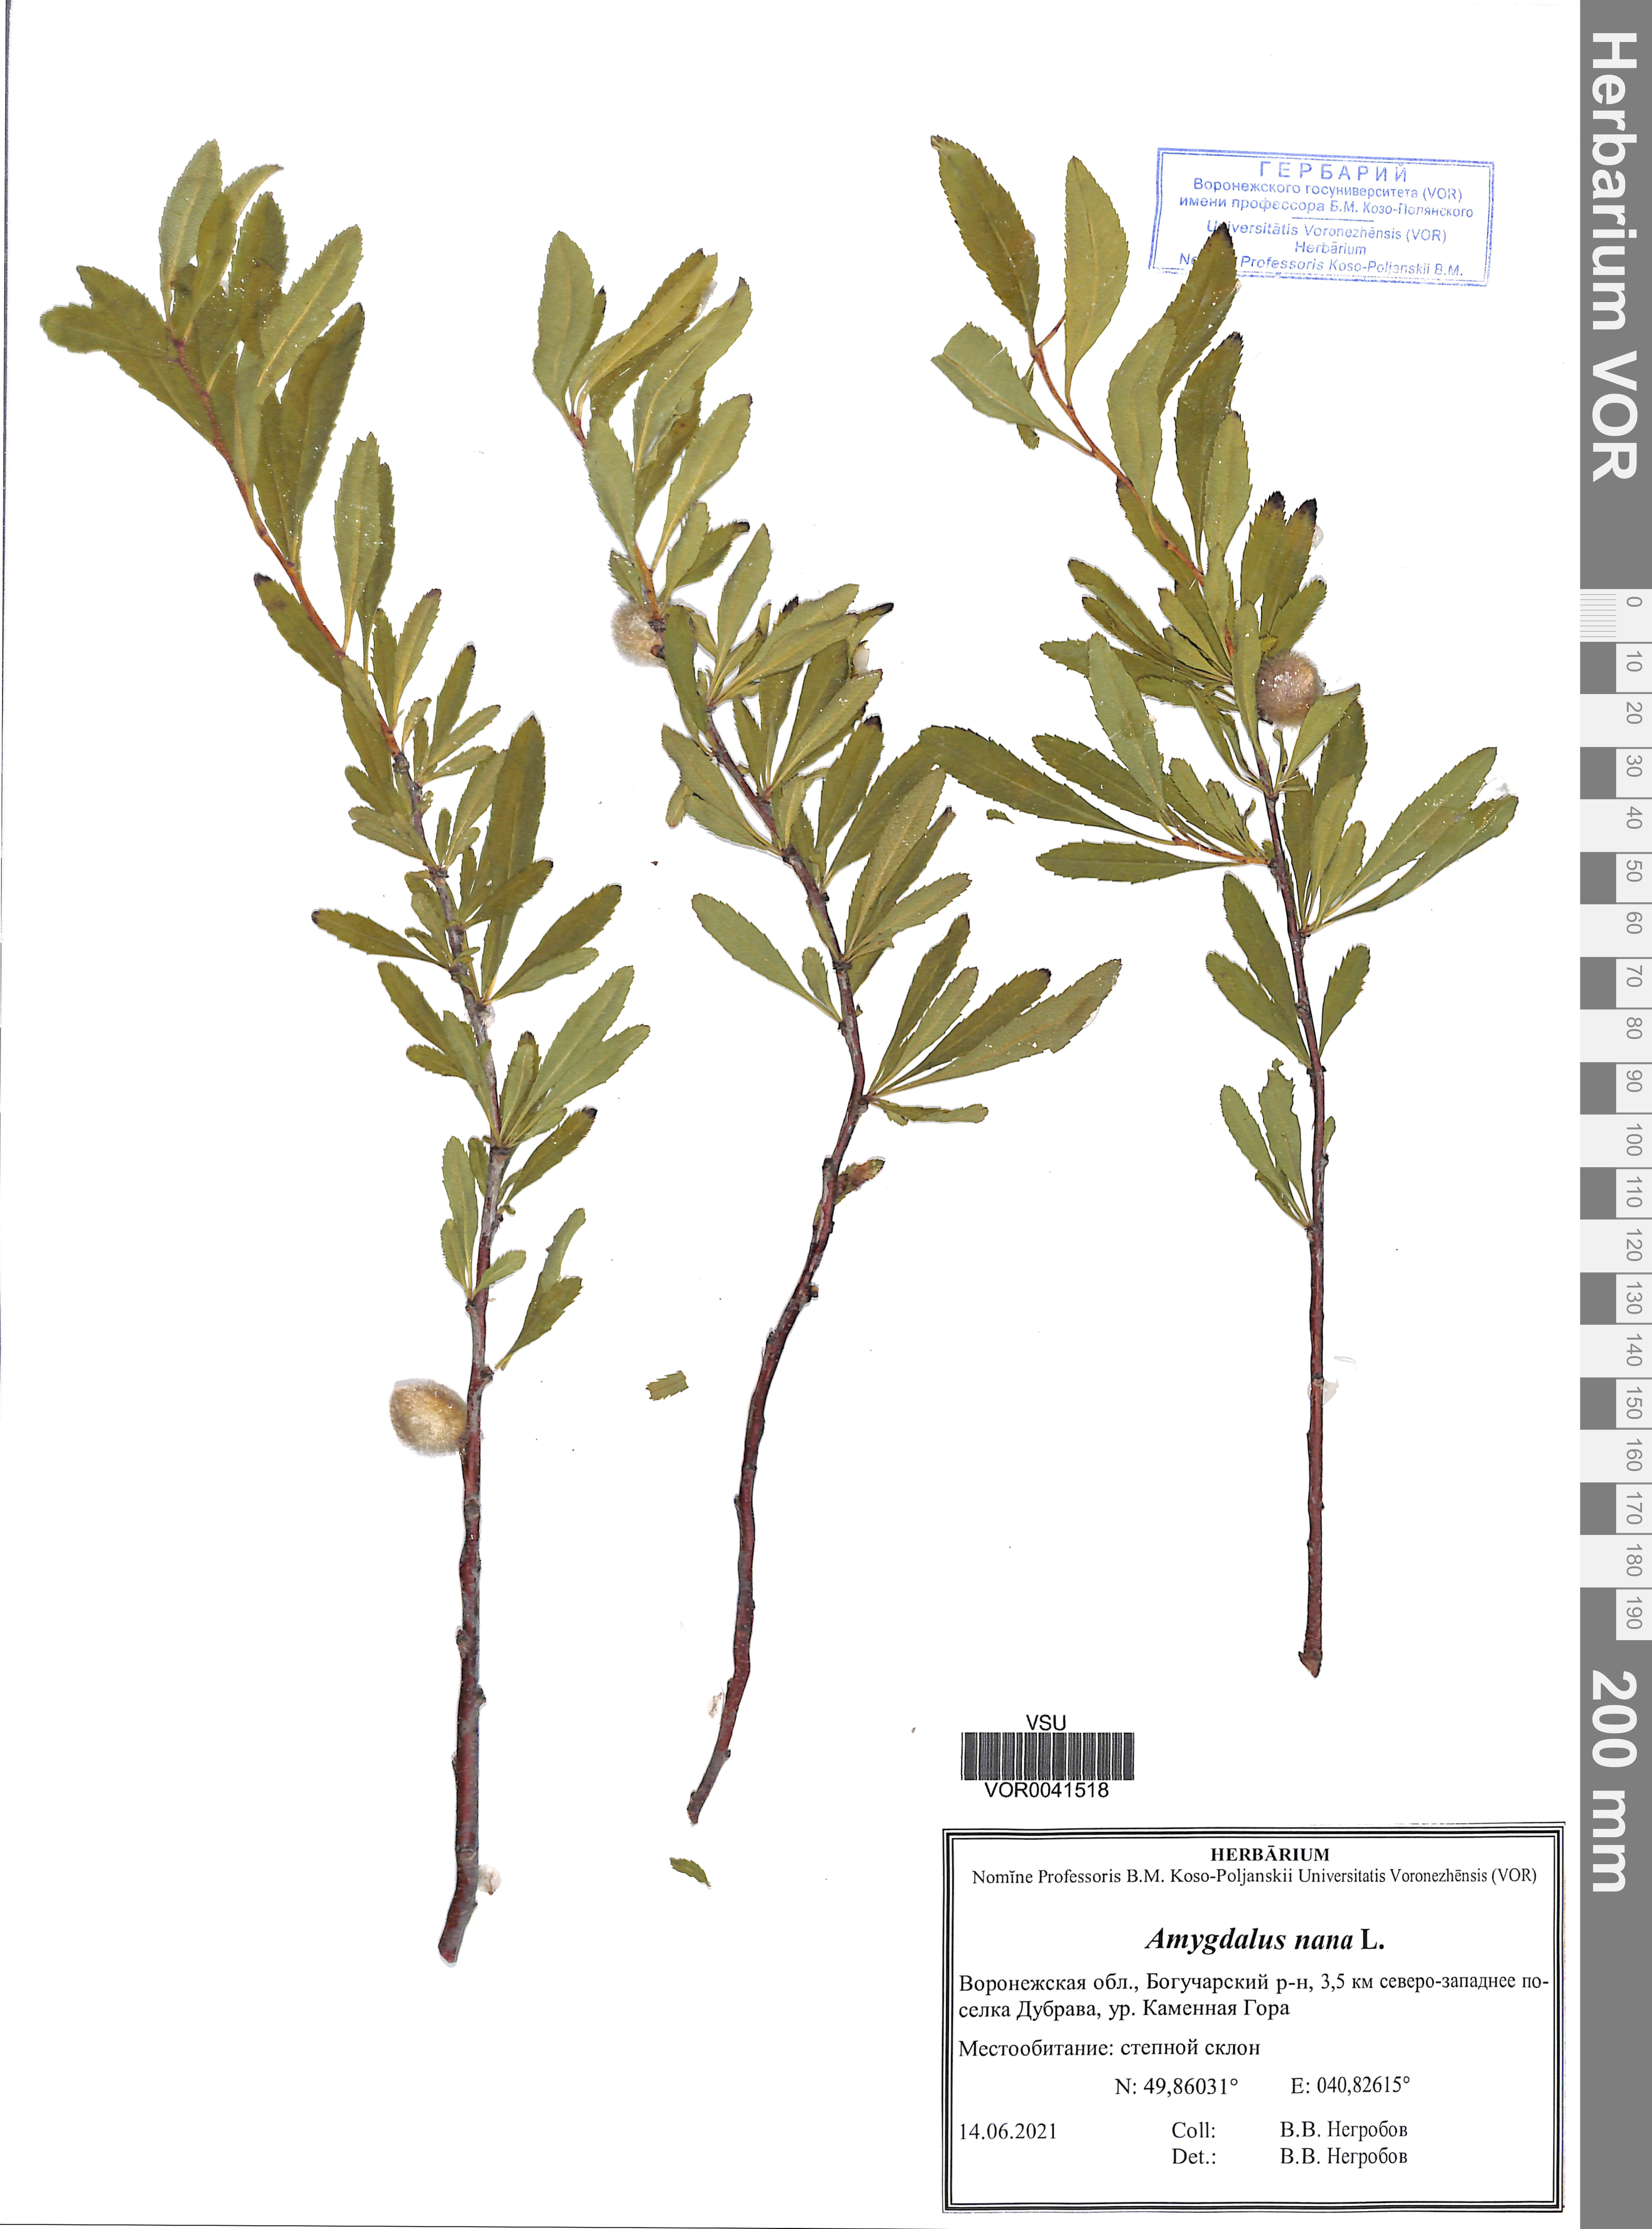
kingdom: Plantae
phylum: Tracheophyta
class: Magnoliopsida
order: Rosales
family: Rosaceae
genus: Prunus
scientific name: Prunus tenella
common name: Dwarf russian almond
